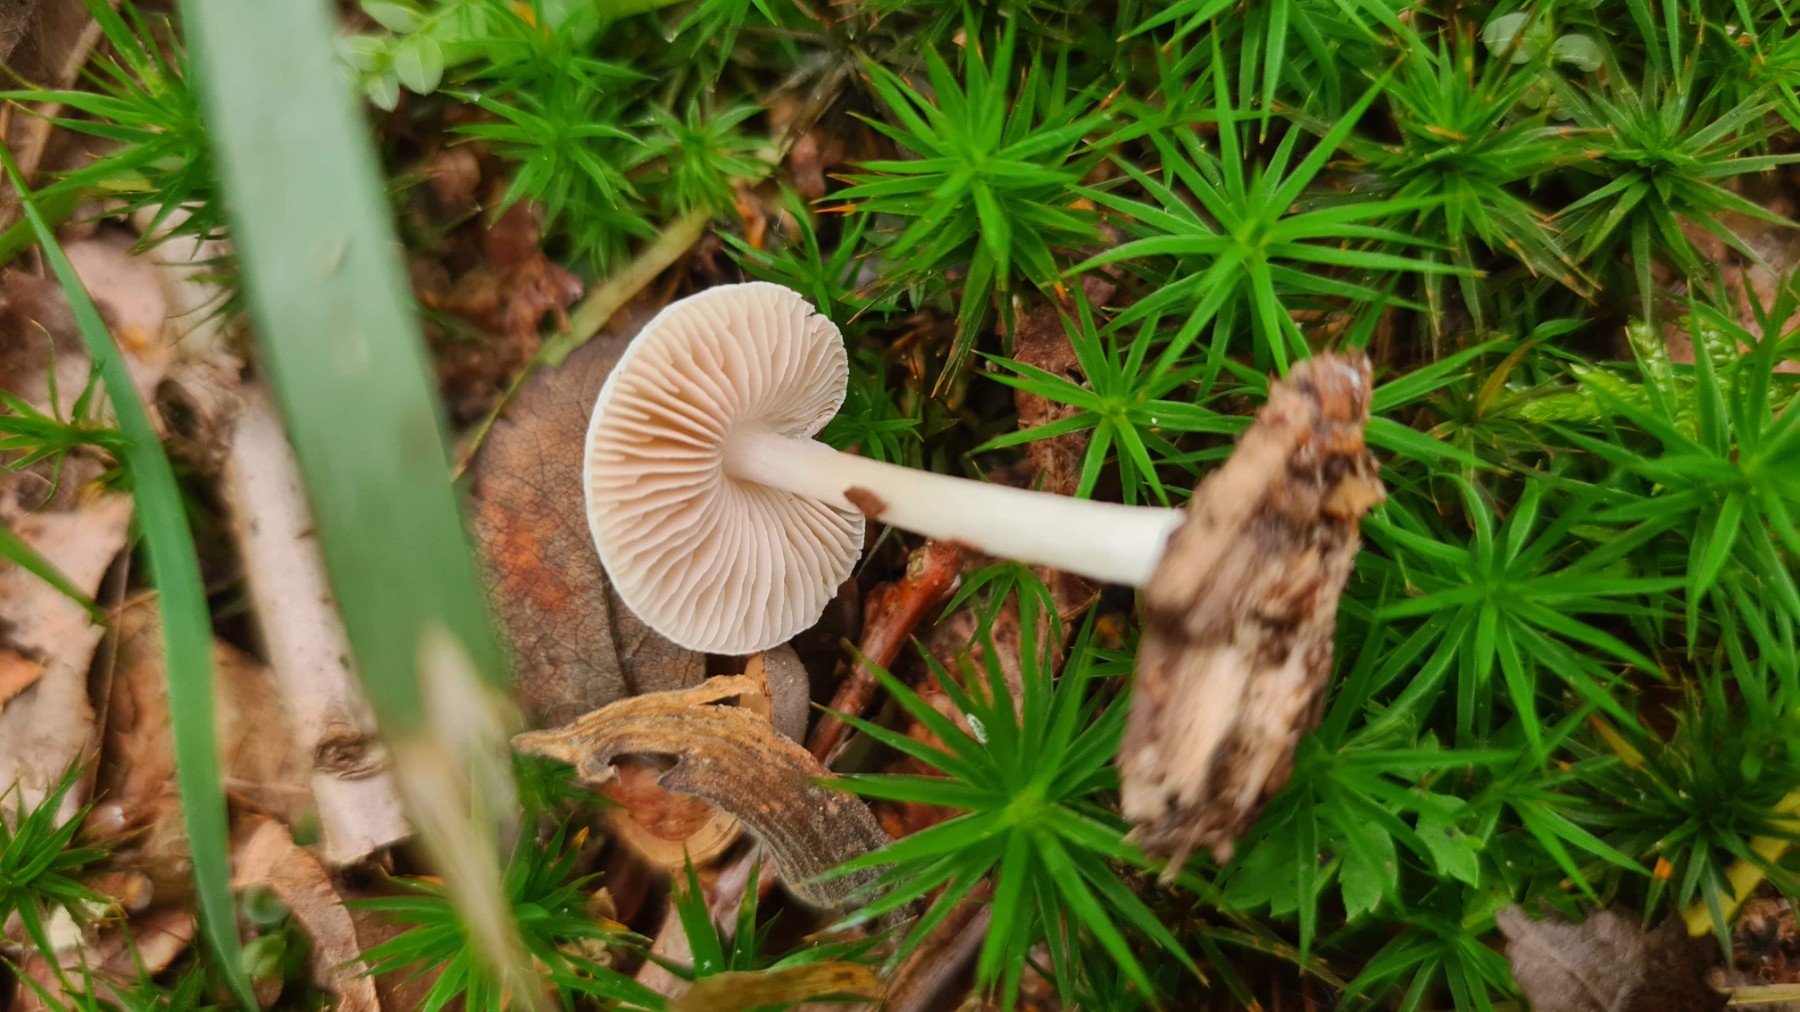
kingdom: Fungi
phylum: Basidiomycota
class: Agaricomycetes
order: Agaricales
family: Pluteaceae
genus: Pluteus
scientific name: Pluteus
